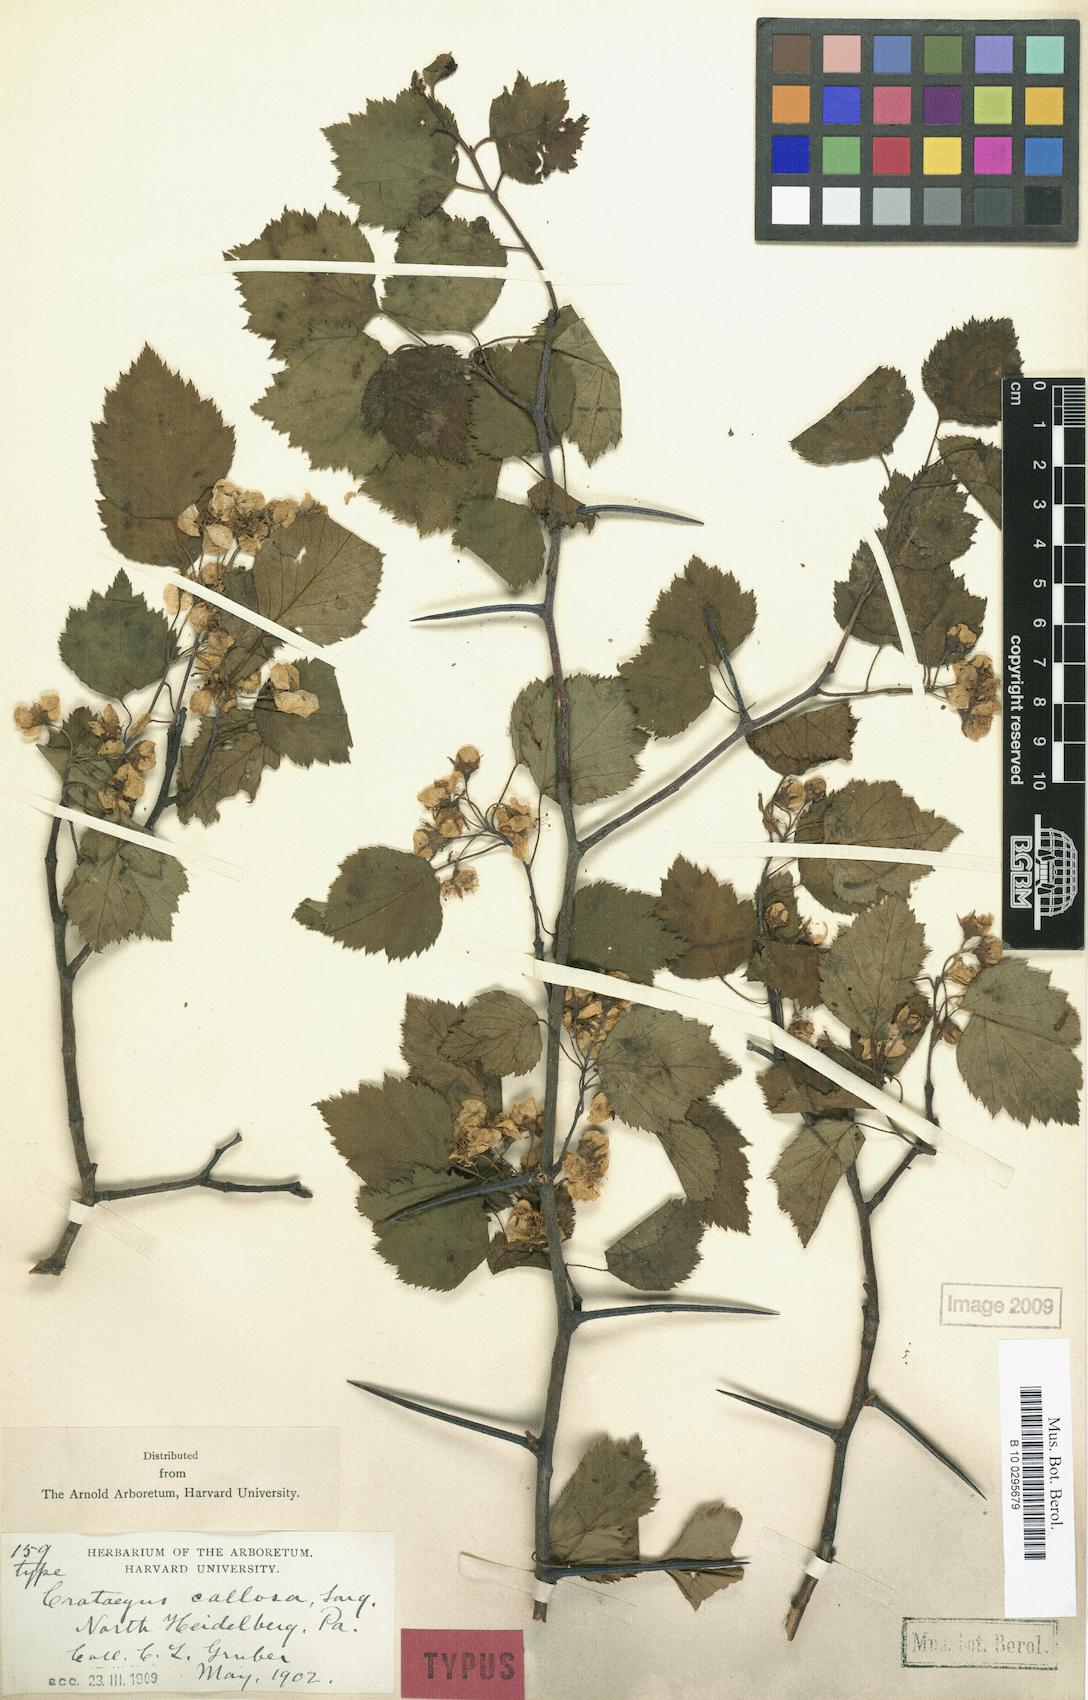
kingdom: Plantae
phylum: Tracheophyta
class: Magnoliopsida
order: Rosales
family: Rosaceae
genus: Crataegus
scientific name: Crataegus callosa
